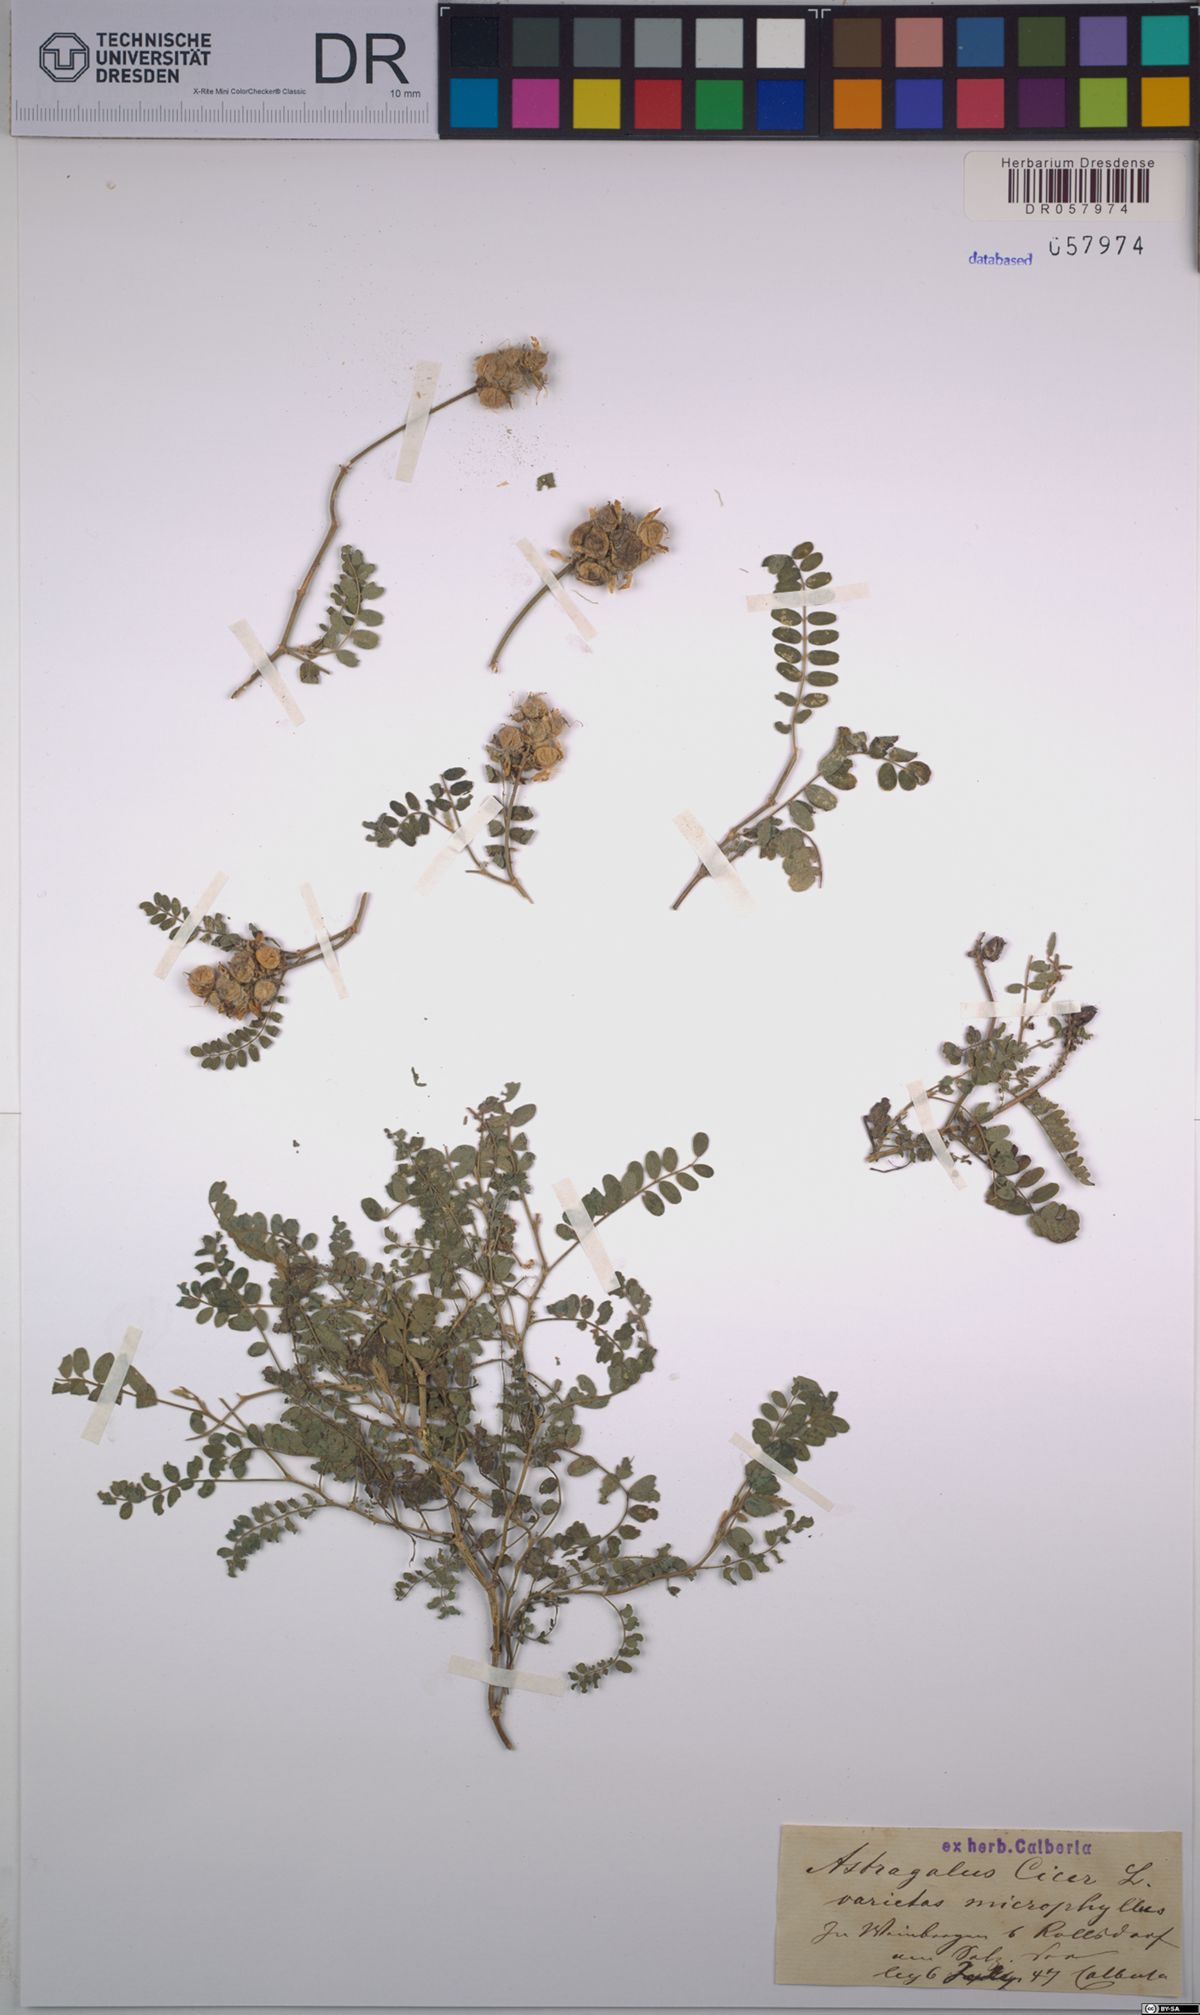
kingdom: Plantae
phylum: Tracheophyta
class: Magnoliopsida
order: Fabales
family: Fabaceae
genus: Astragalus
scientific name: Astragalus cicer
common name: Chick-pea milk-vetch
